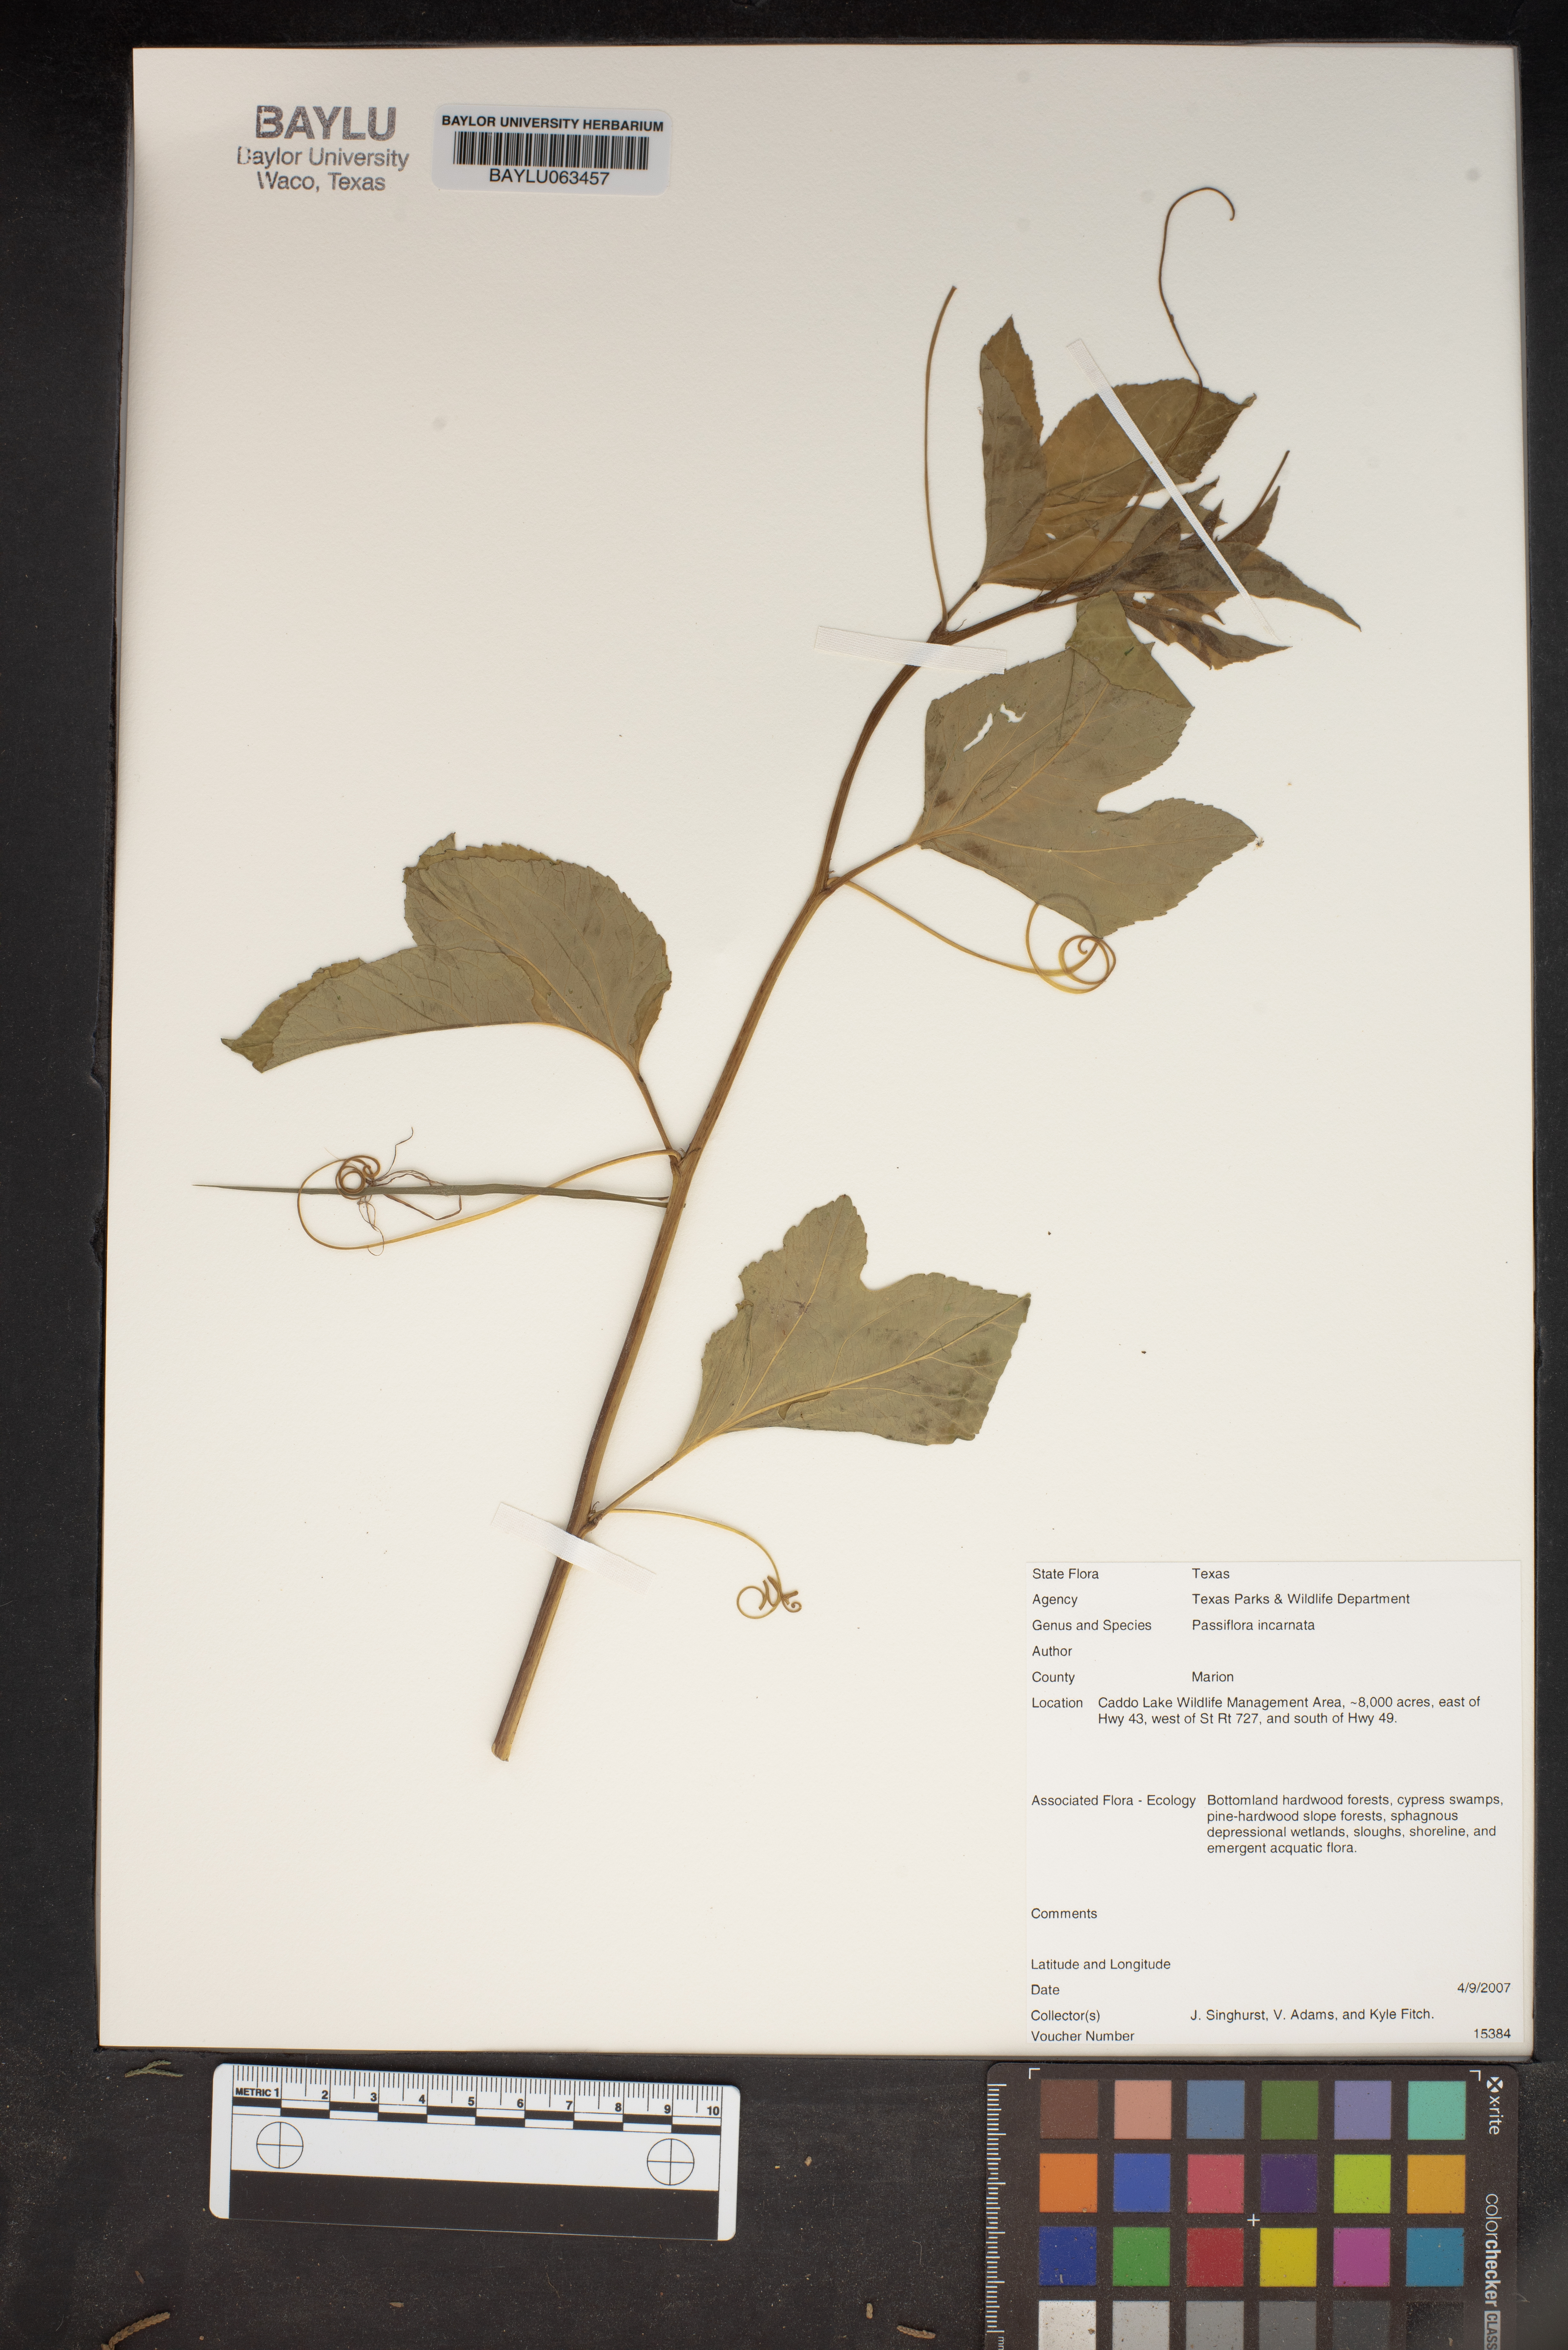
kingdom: Plantae
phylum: Tracheophyta
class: Magnoliopsida
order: Malpighiales
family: Passifloraceae
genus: Passiflora
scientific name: Passiflora incarnata
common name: Apricot-vine
